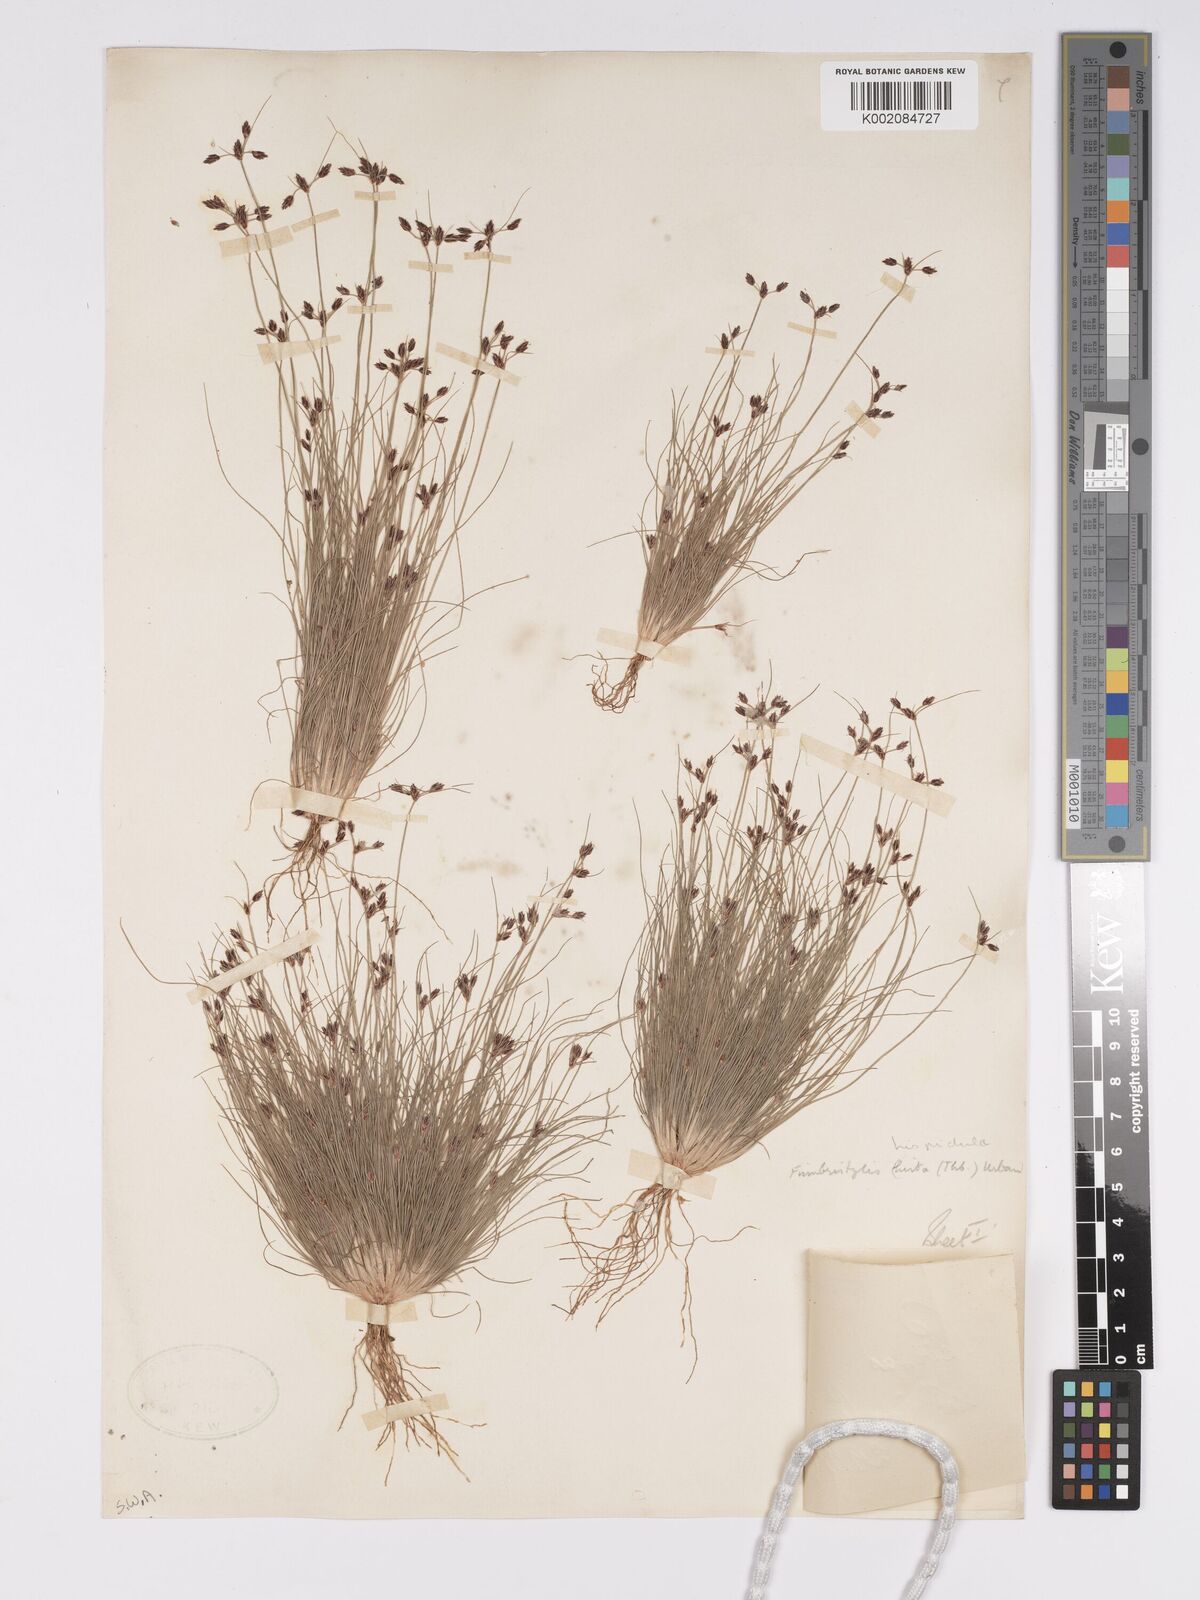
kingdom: Plantae
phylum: Tracheophyta
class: Liliopsida
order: Poales
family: Cyperaceae
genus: Bulbostylis
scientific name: Bulbostylis hispidula
